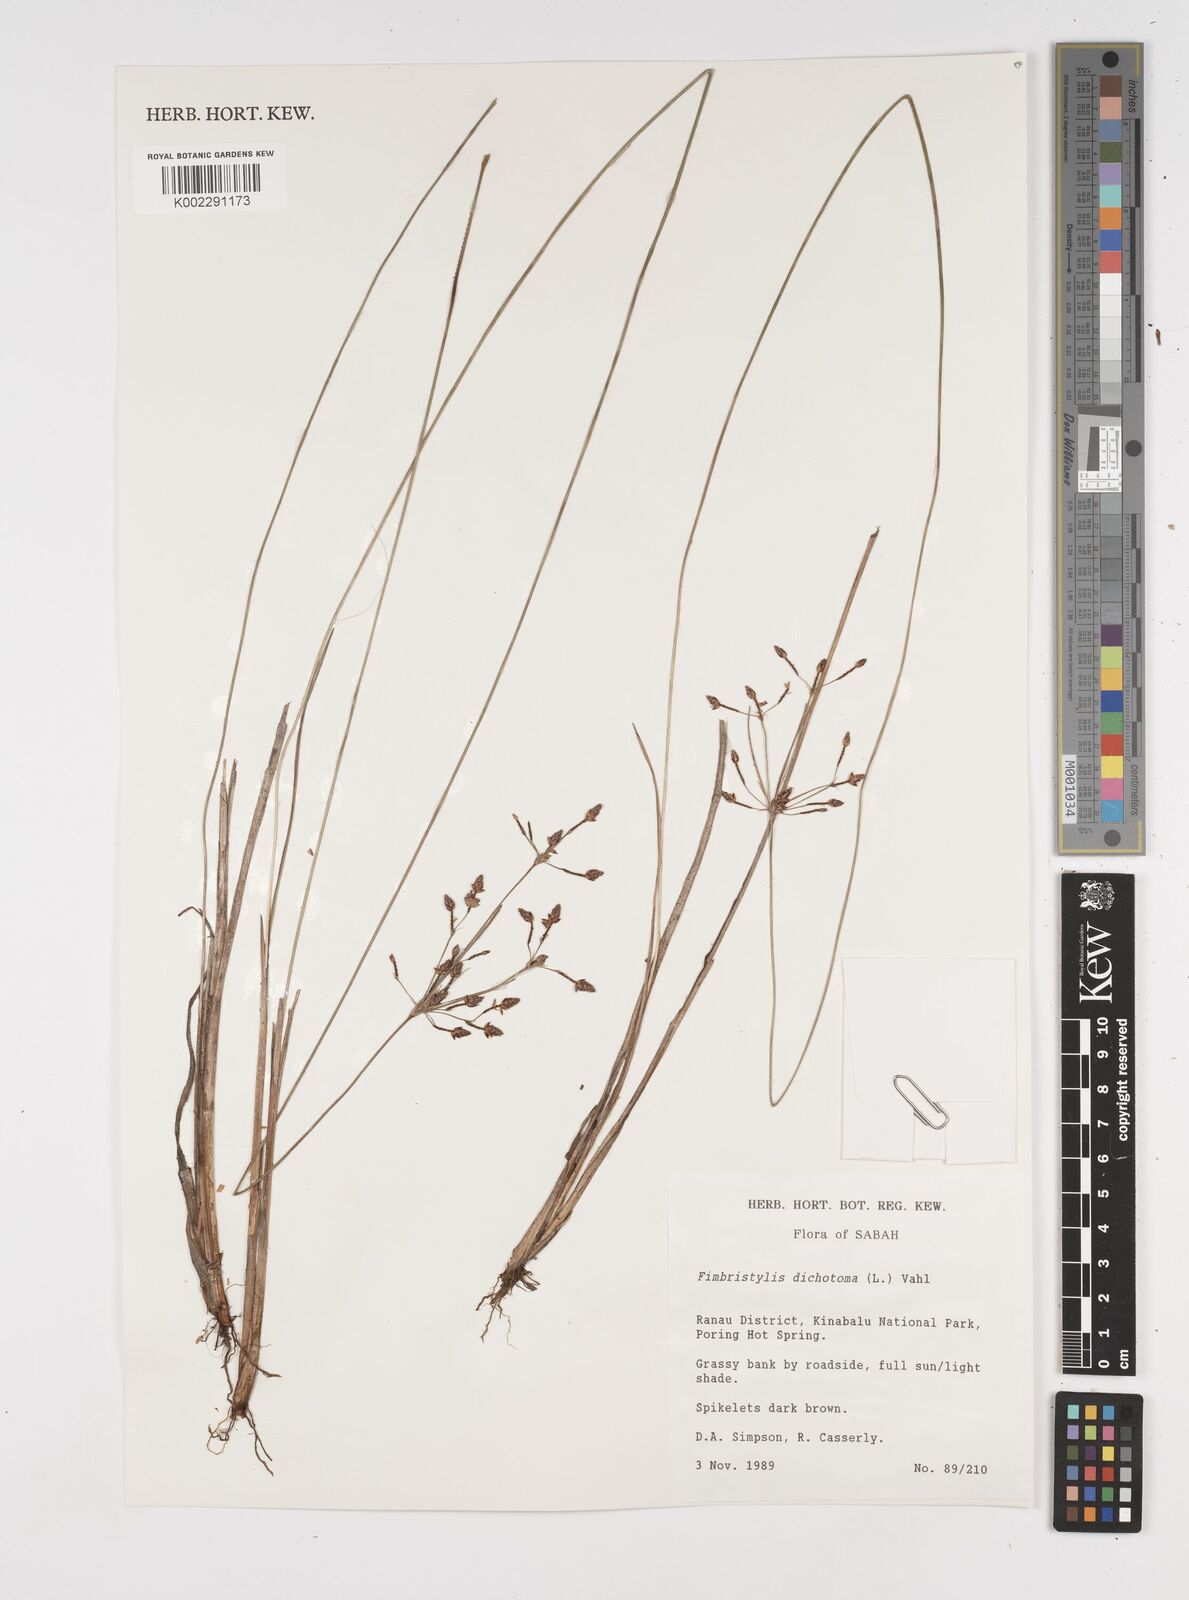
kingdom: Plantae
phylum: Tracheophyta
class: Liliopsida
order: Poales
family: Cyperaceae
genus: Fimbristylis
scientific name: Fimbristylis dichotoma
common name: Forked fimbry
